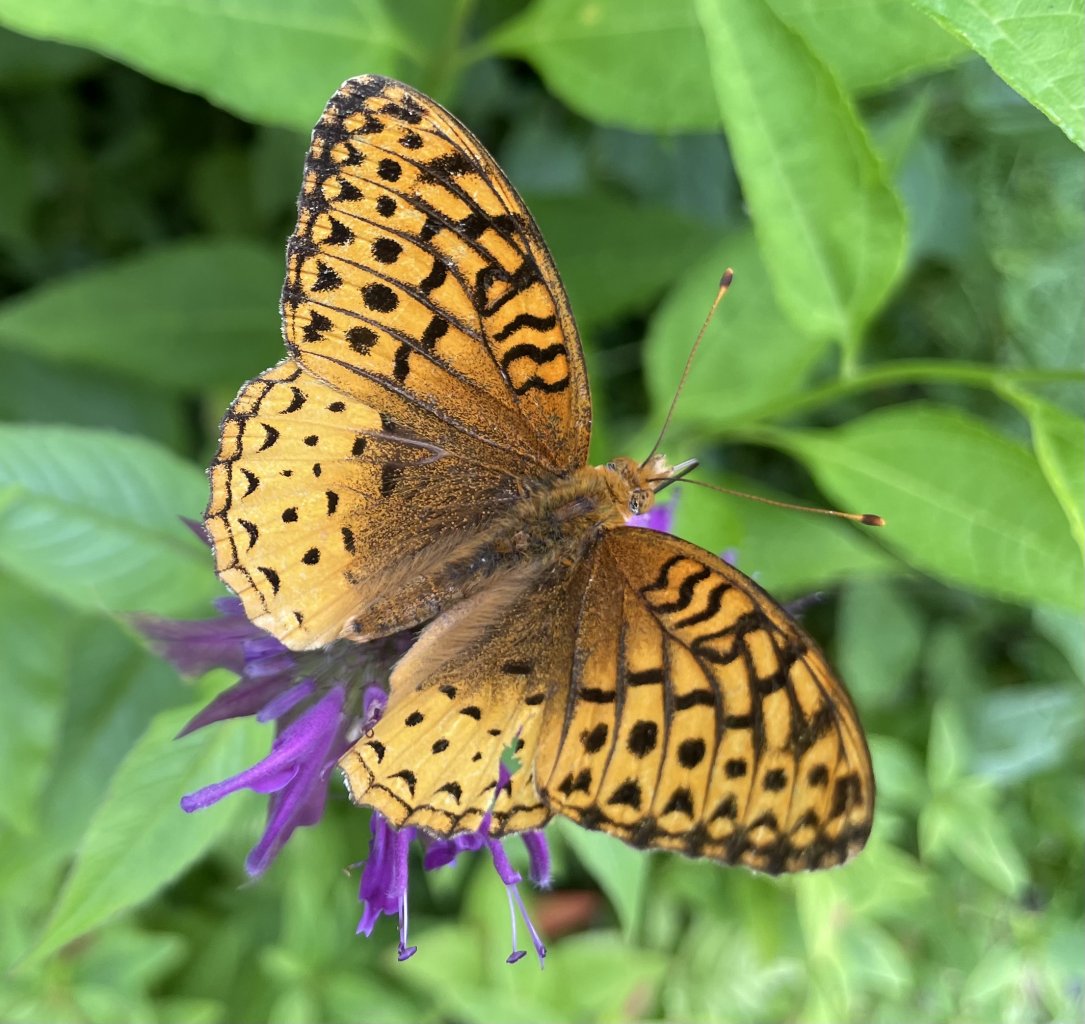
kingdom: Animalia
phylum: Arthropoda
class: Insecta
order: Lepidoptera
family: Nymphalidae
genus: Speyeria
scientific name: Speyeria cybele
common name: Great Spangled Fritillary
